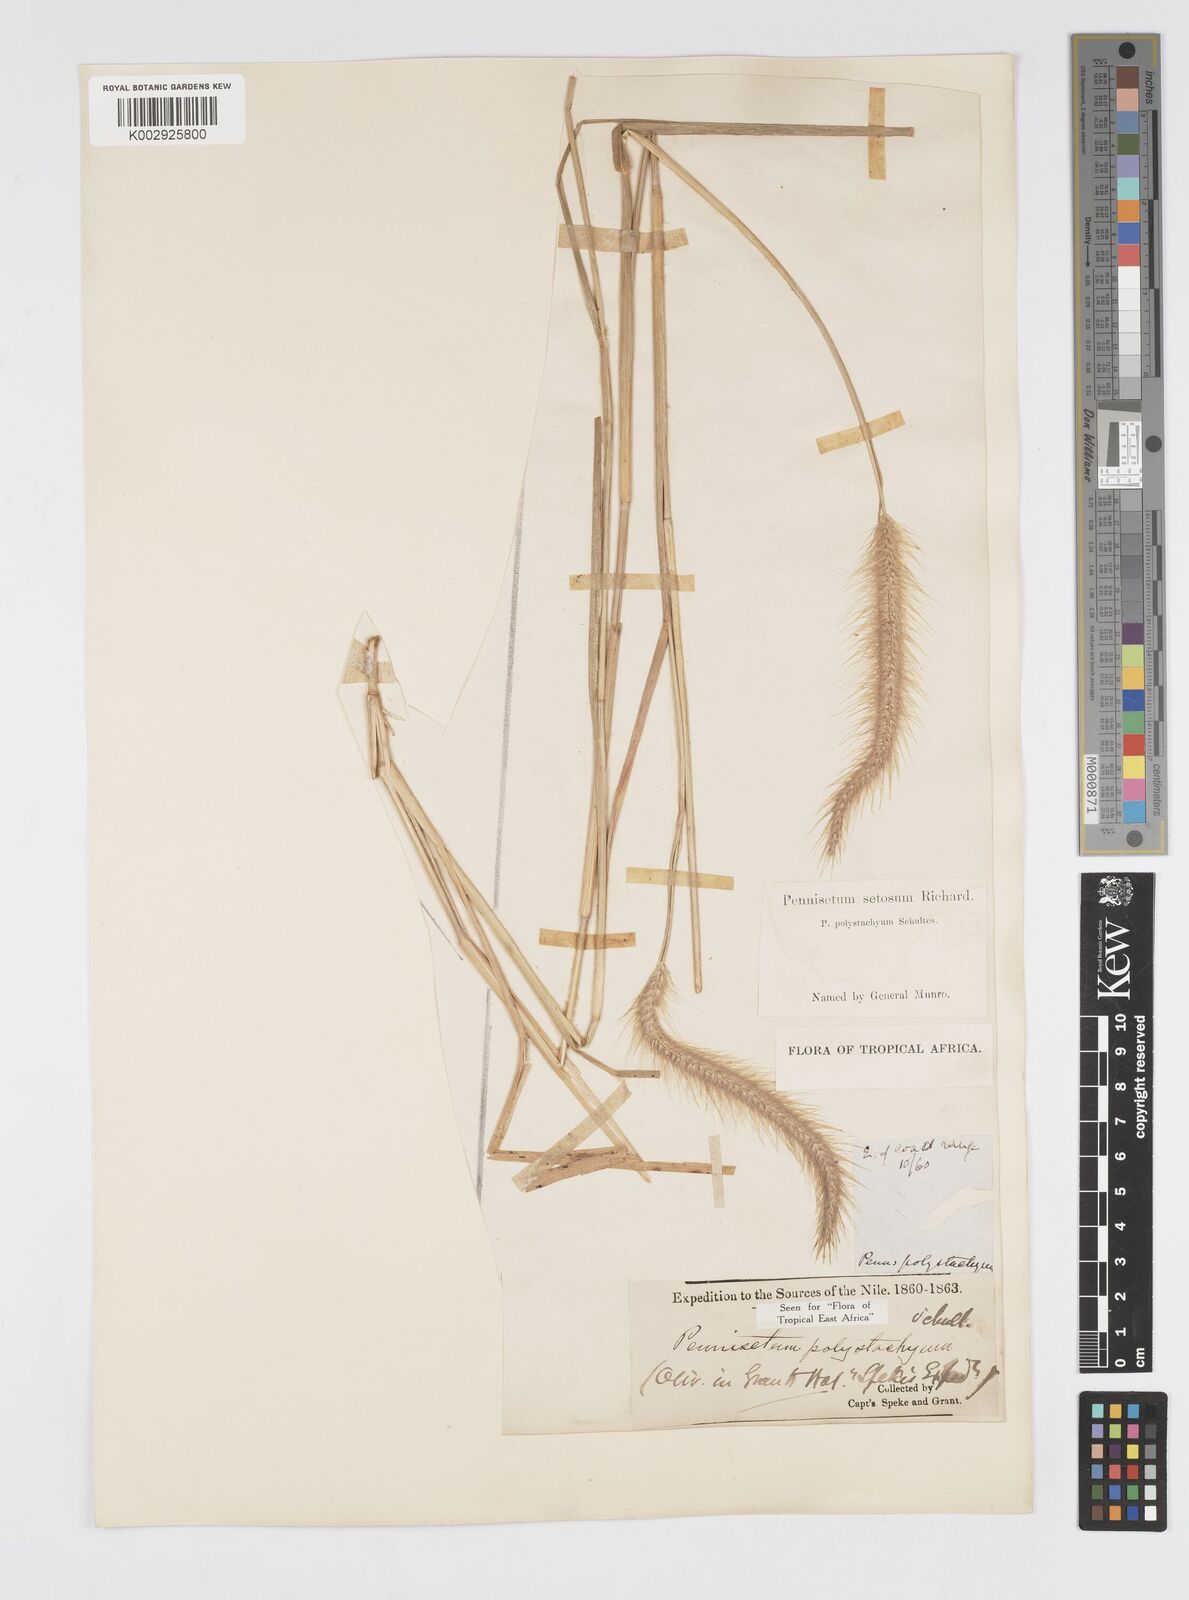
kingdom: Plantae
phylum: Tracheophyta
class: Liliopsida
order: Poales
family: Poaceae
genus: Setaria
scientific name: Setaria parviflora
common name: Knotroot bristle-grass
